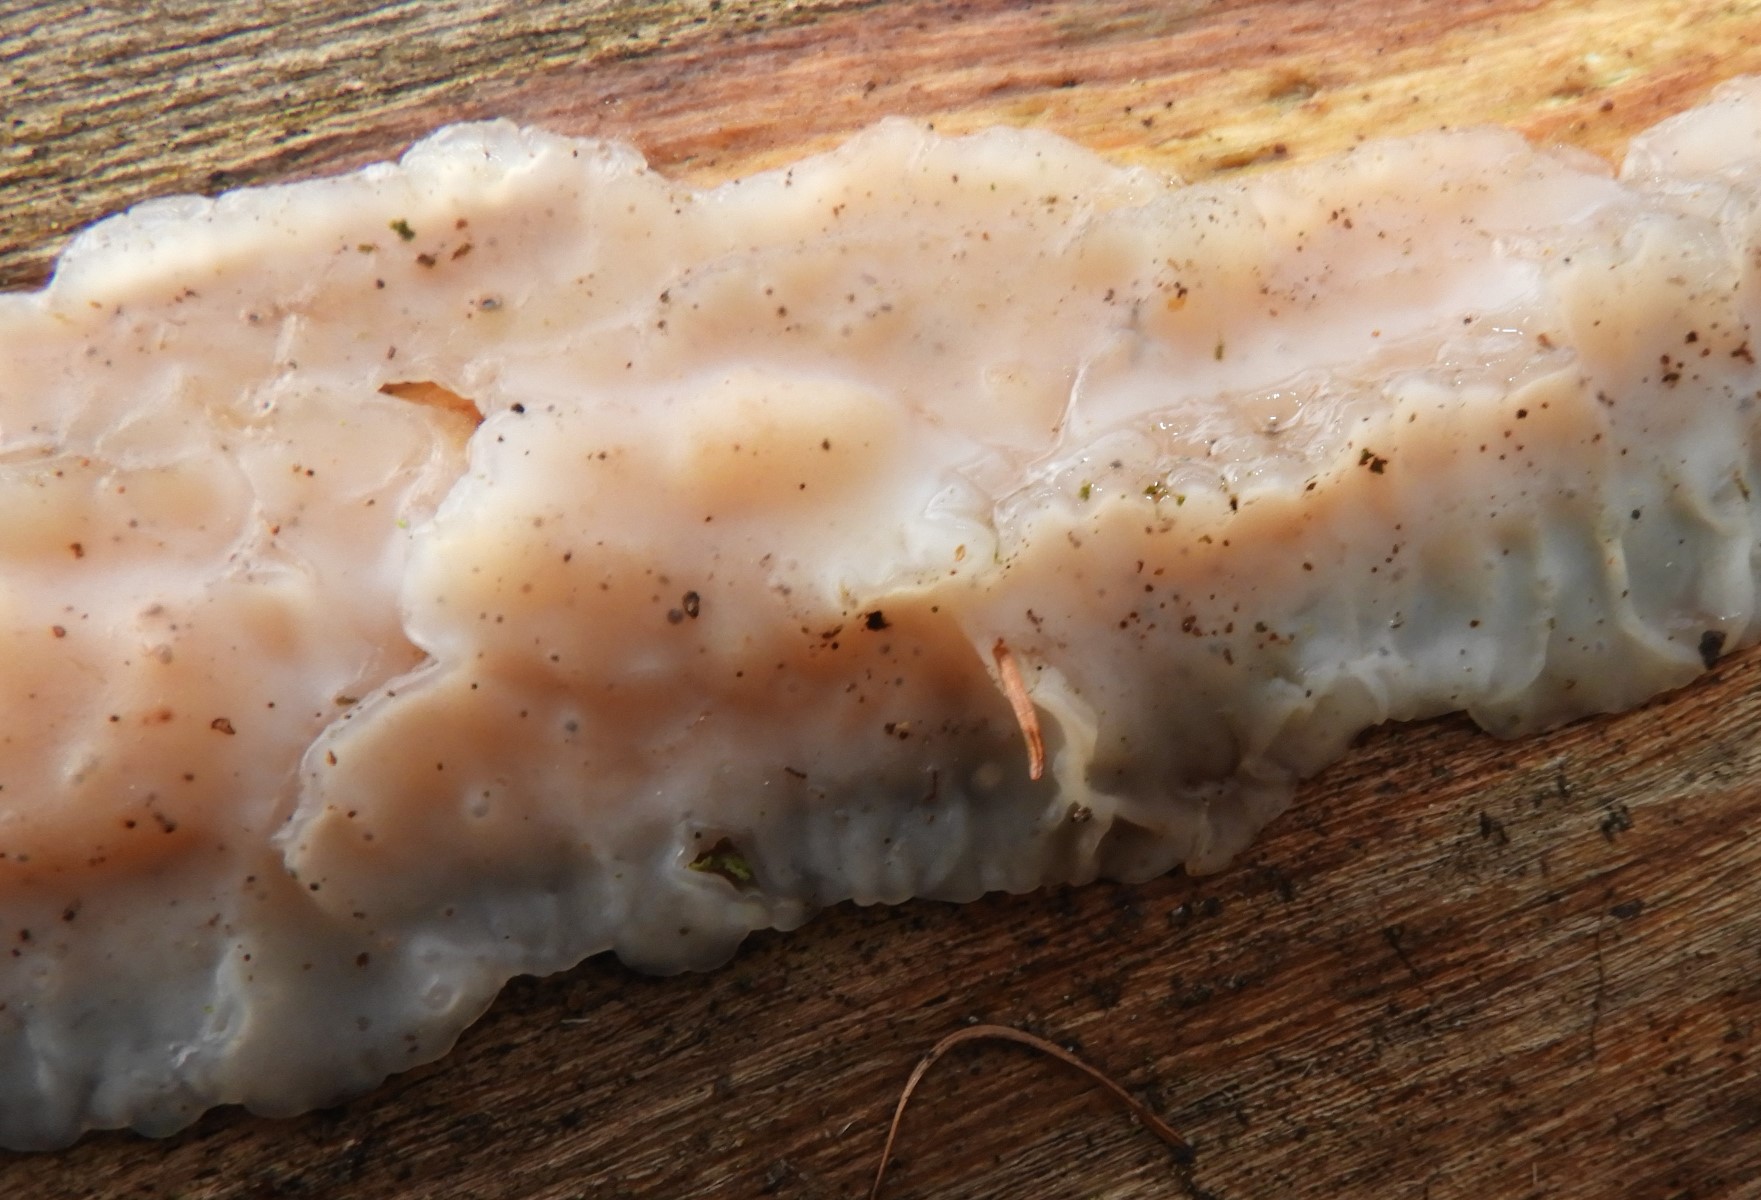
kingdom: Fungi
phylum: Basidiomycota
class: Agaricomycetes
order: Auriculariales
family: Auriculariaceae
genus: Exidia
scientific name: Exidia thuretiana
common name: hvidlig bævretop
